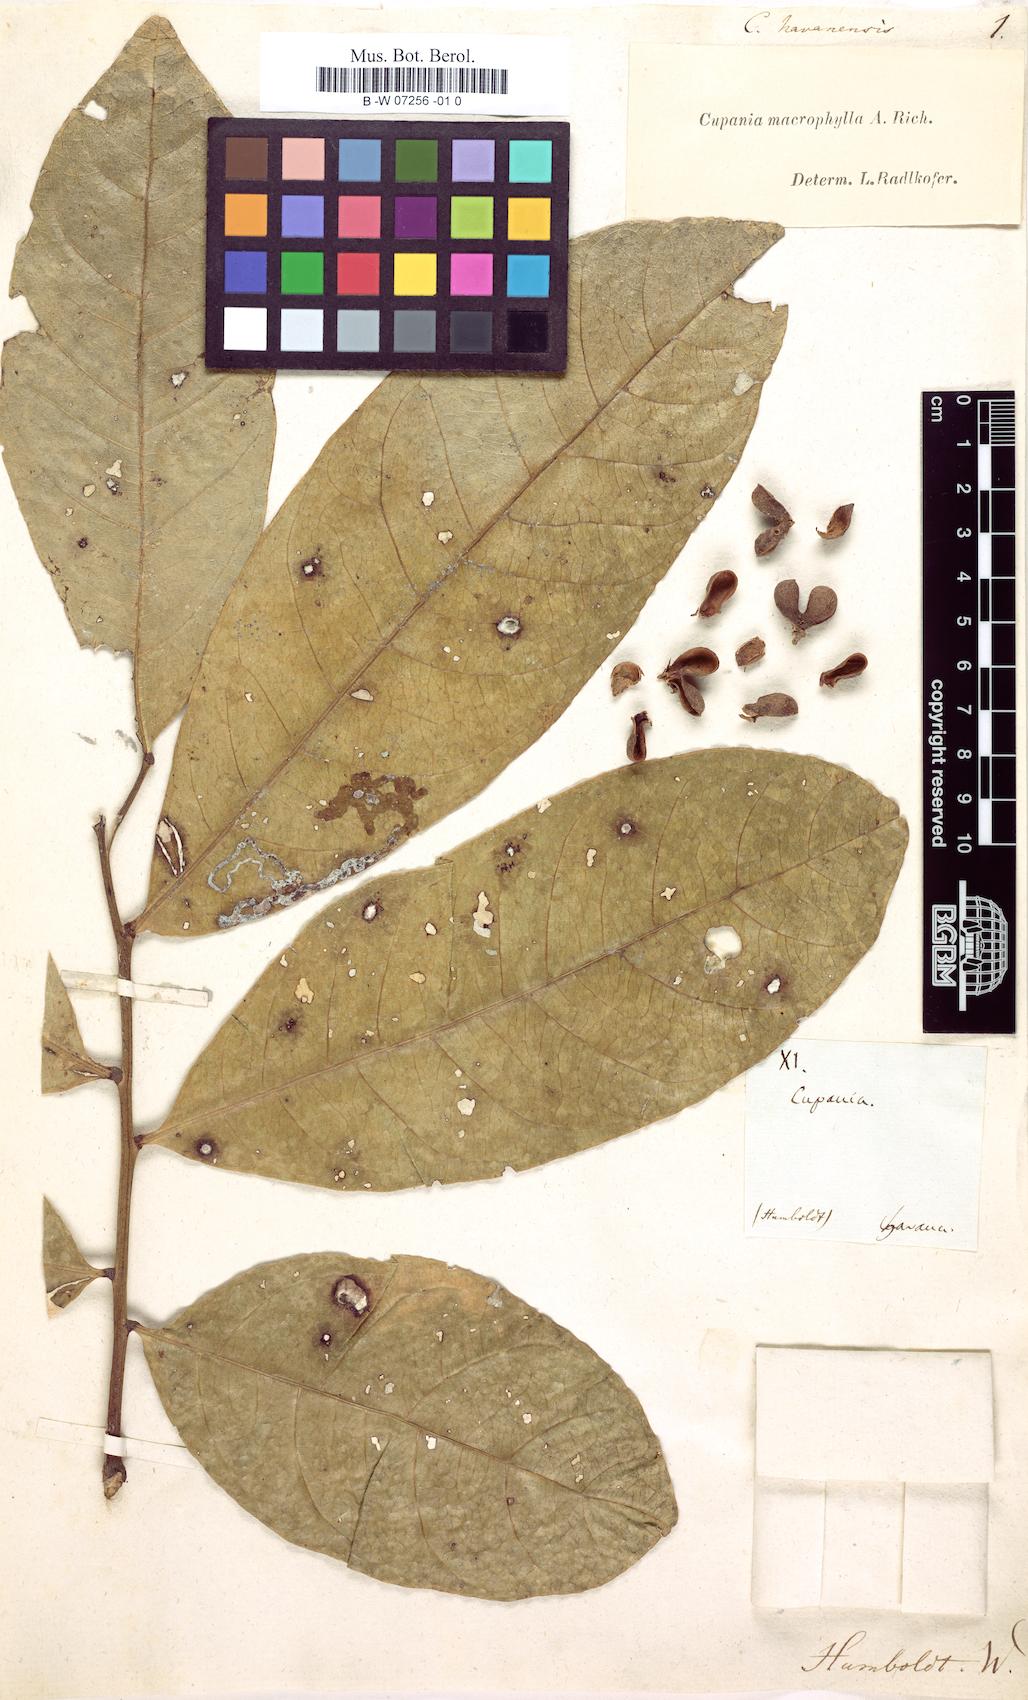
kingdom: Plantae
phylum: Tracheophyta
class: Magnoliopsida
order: Sapindales
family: Sapindaceae
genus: Cupania
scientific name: Cupania
